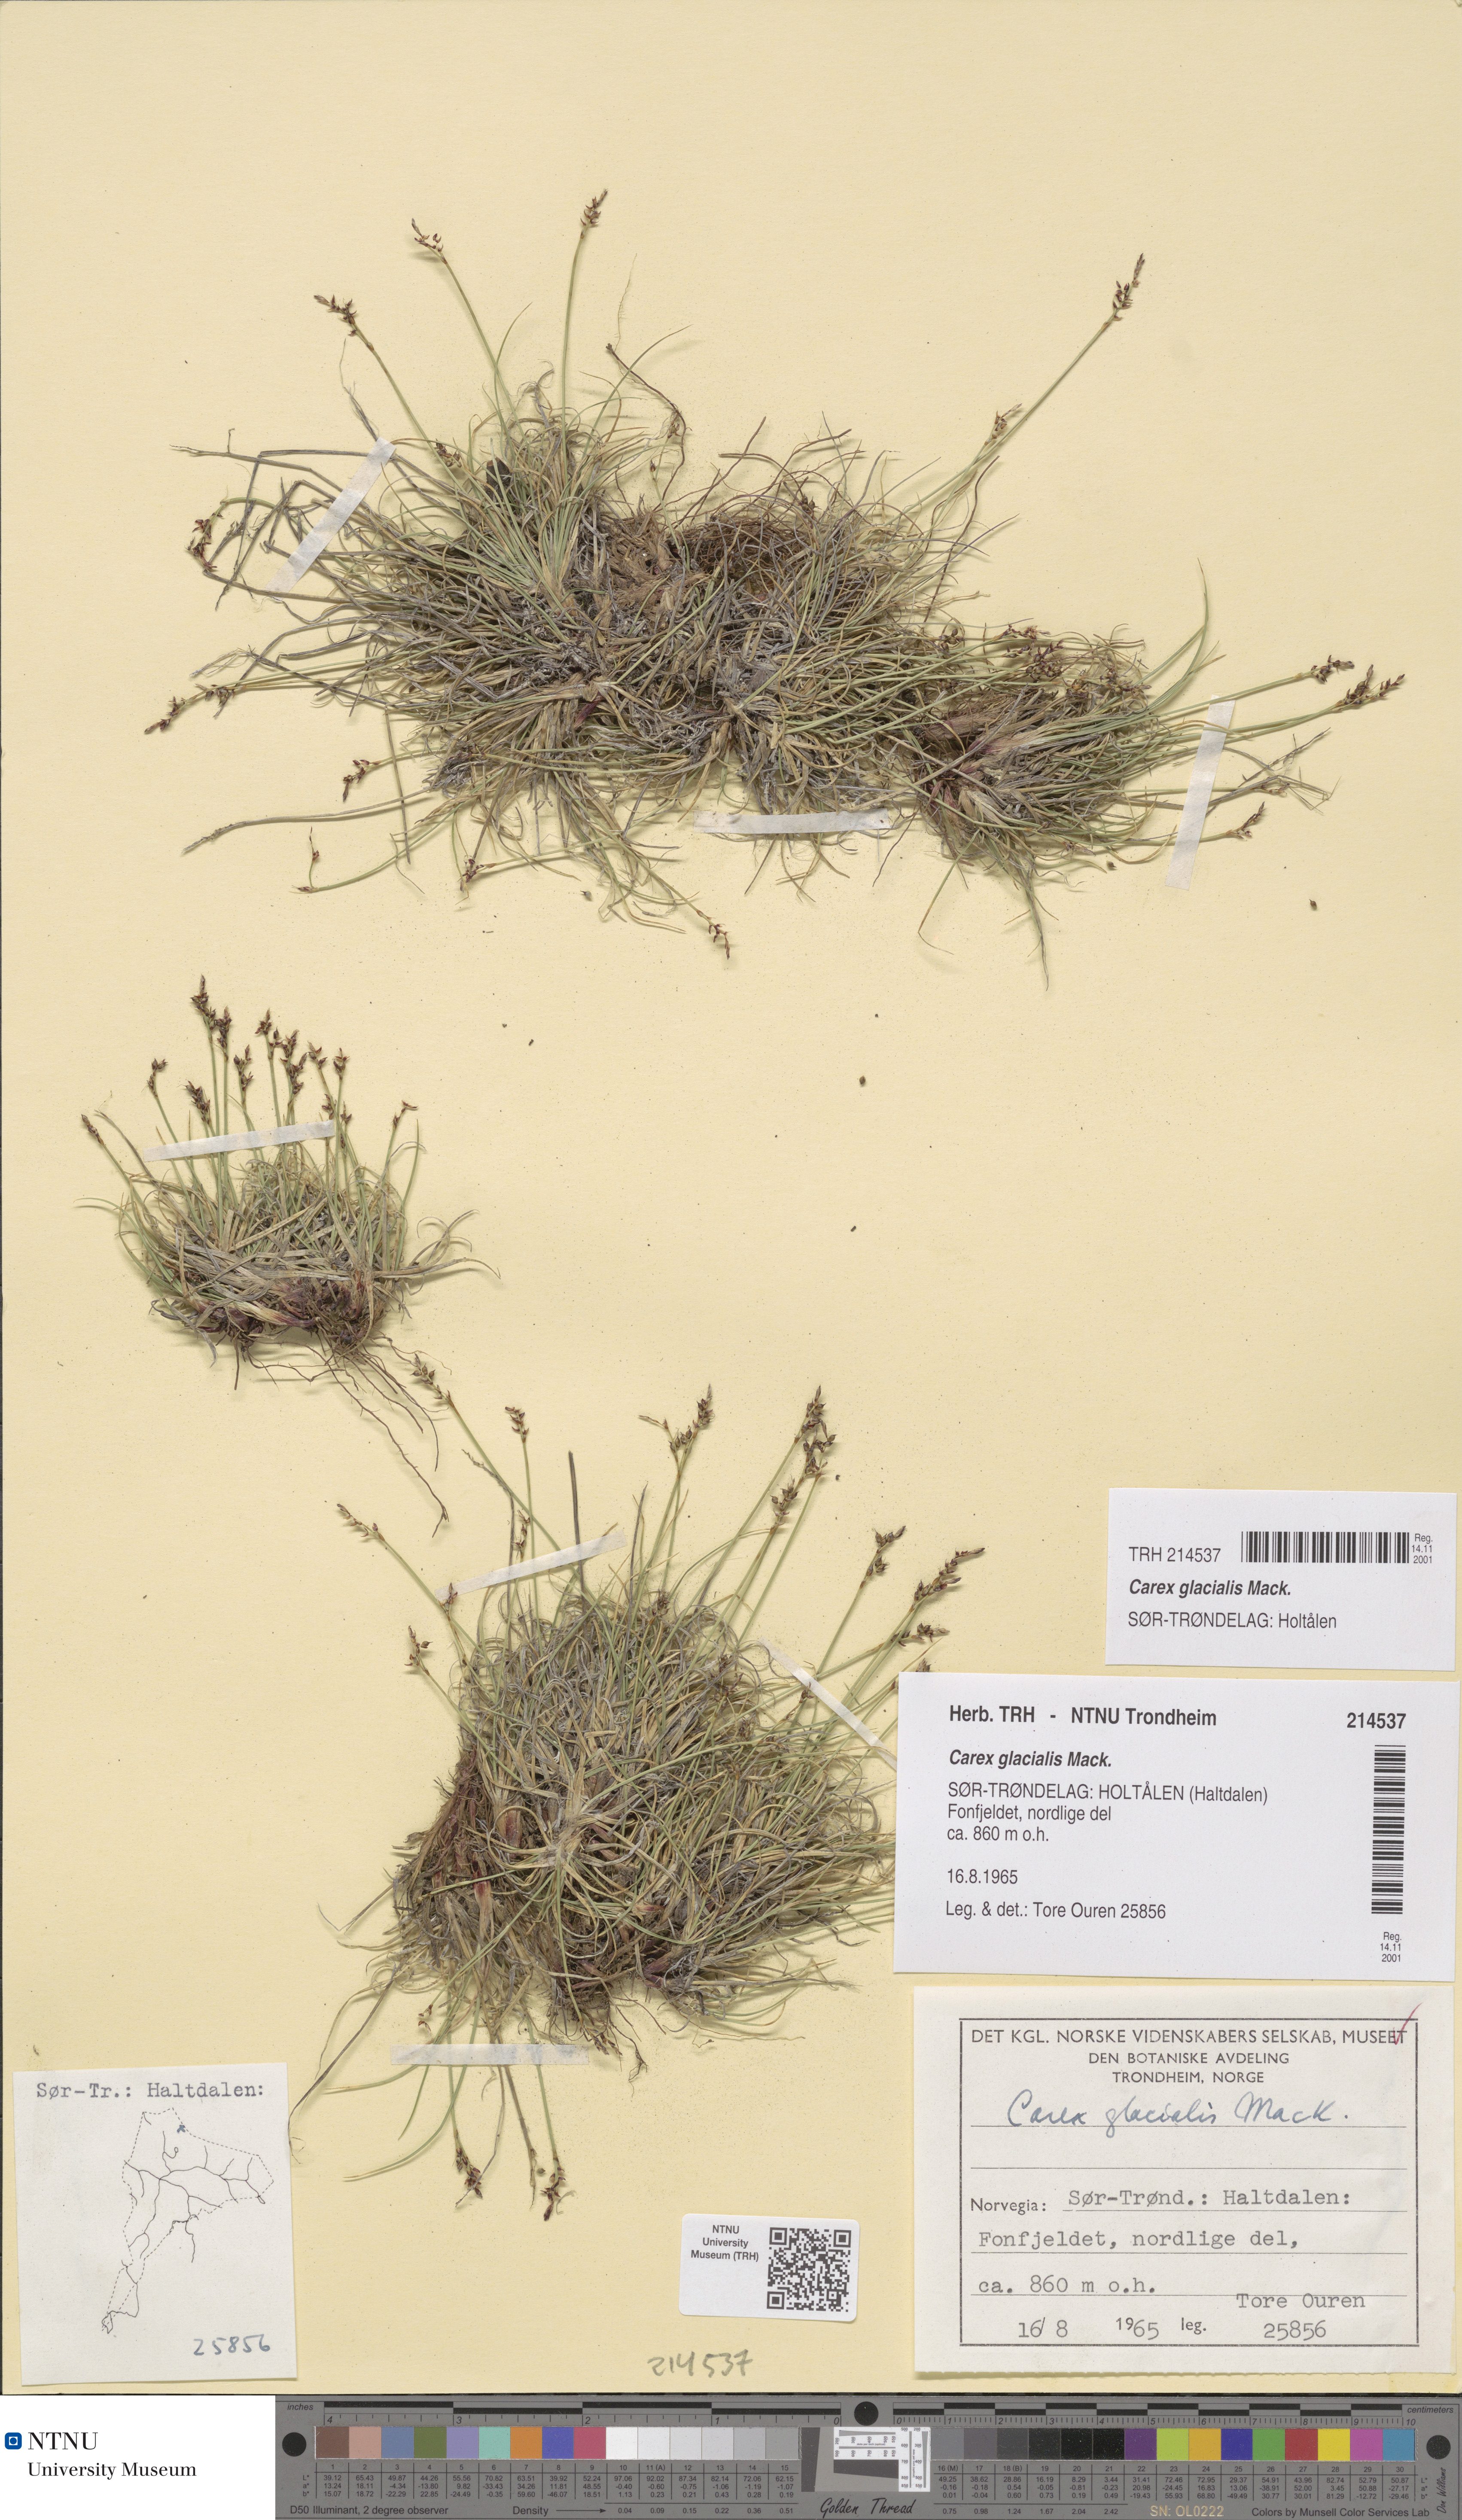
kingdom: Plantae
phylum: Tracheophyta
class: Liliopsida
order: Poales
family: Cyperaceae
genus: Carex
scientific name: Carex glacialis
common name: Newfoundland sedge
